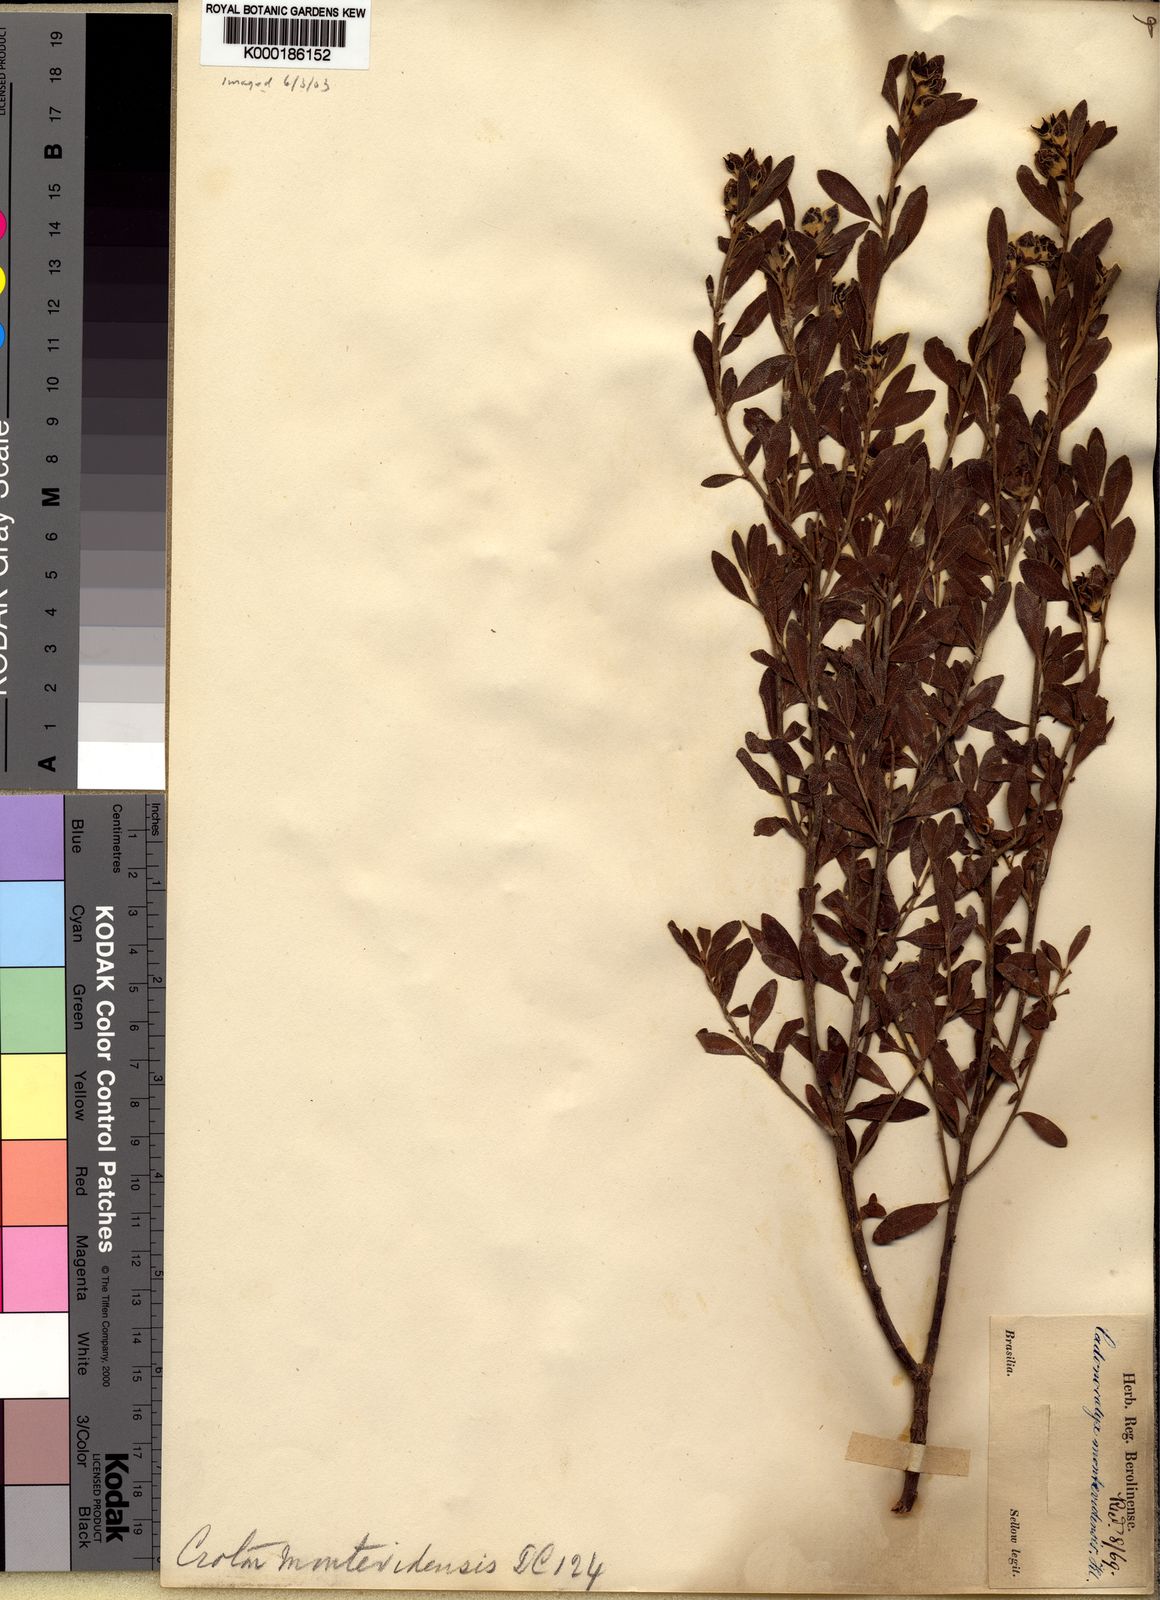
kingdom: Plantae
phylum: Tracheophyta
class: Magnoliopsida
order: Malpighiales
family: Euphorbiaceae
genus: Croton
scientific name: Croton montevidensis
